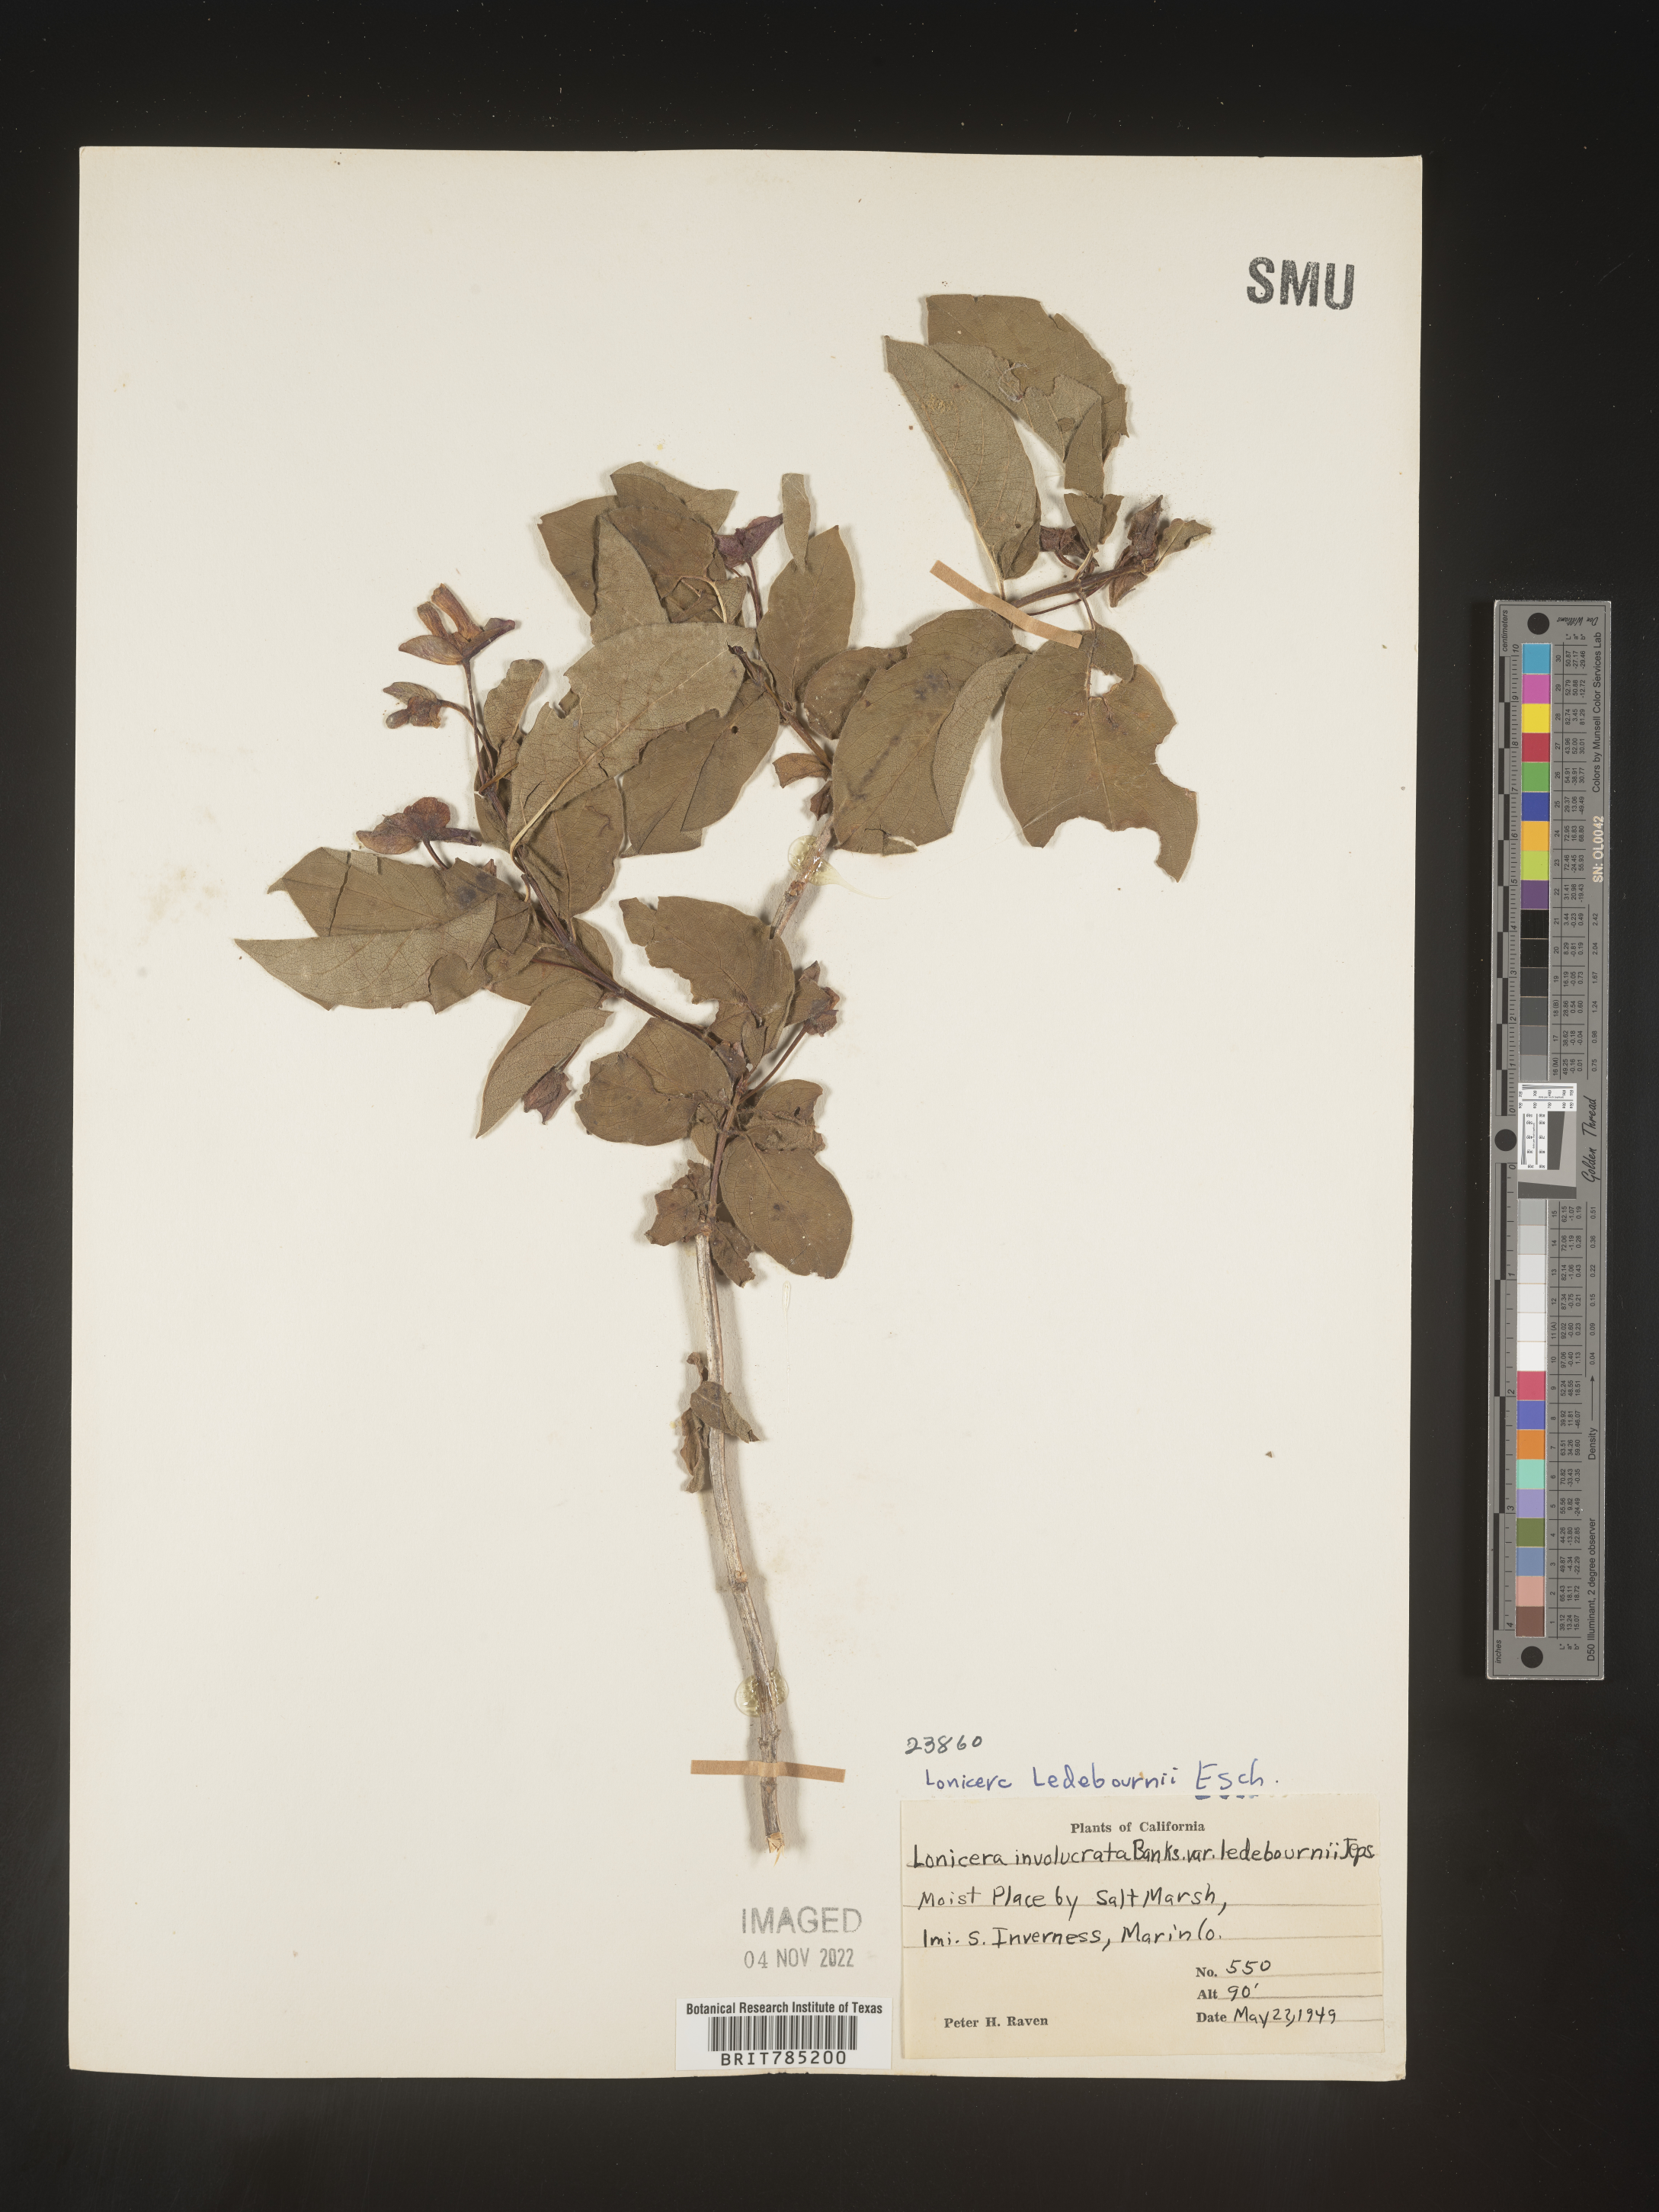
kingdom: Plantae
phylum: Tracheophyta
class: Magnoliopsida
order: Dipsacales
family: Caprifoliaceae
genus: Lonicera
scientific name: Lonicera
